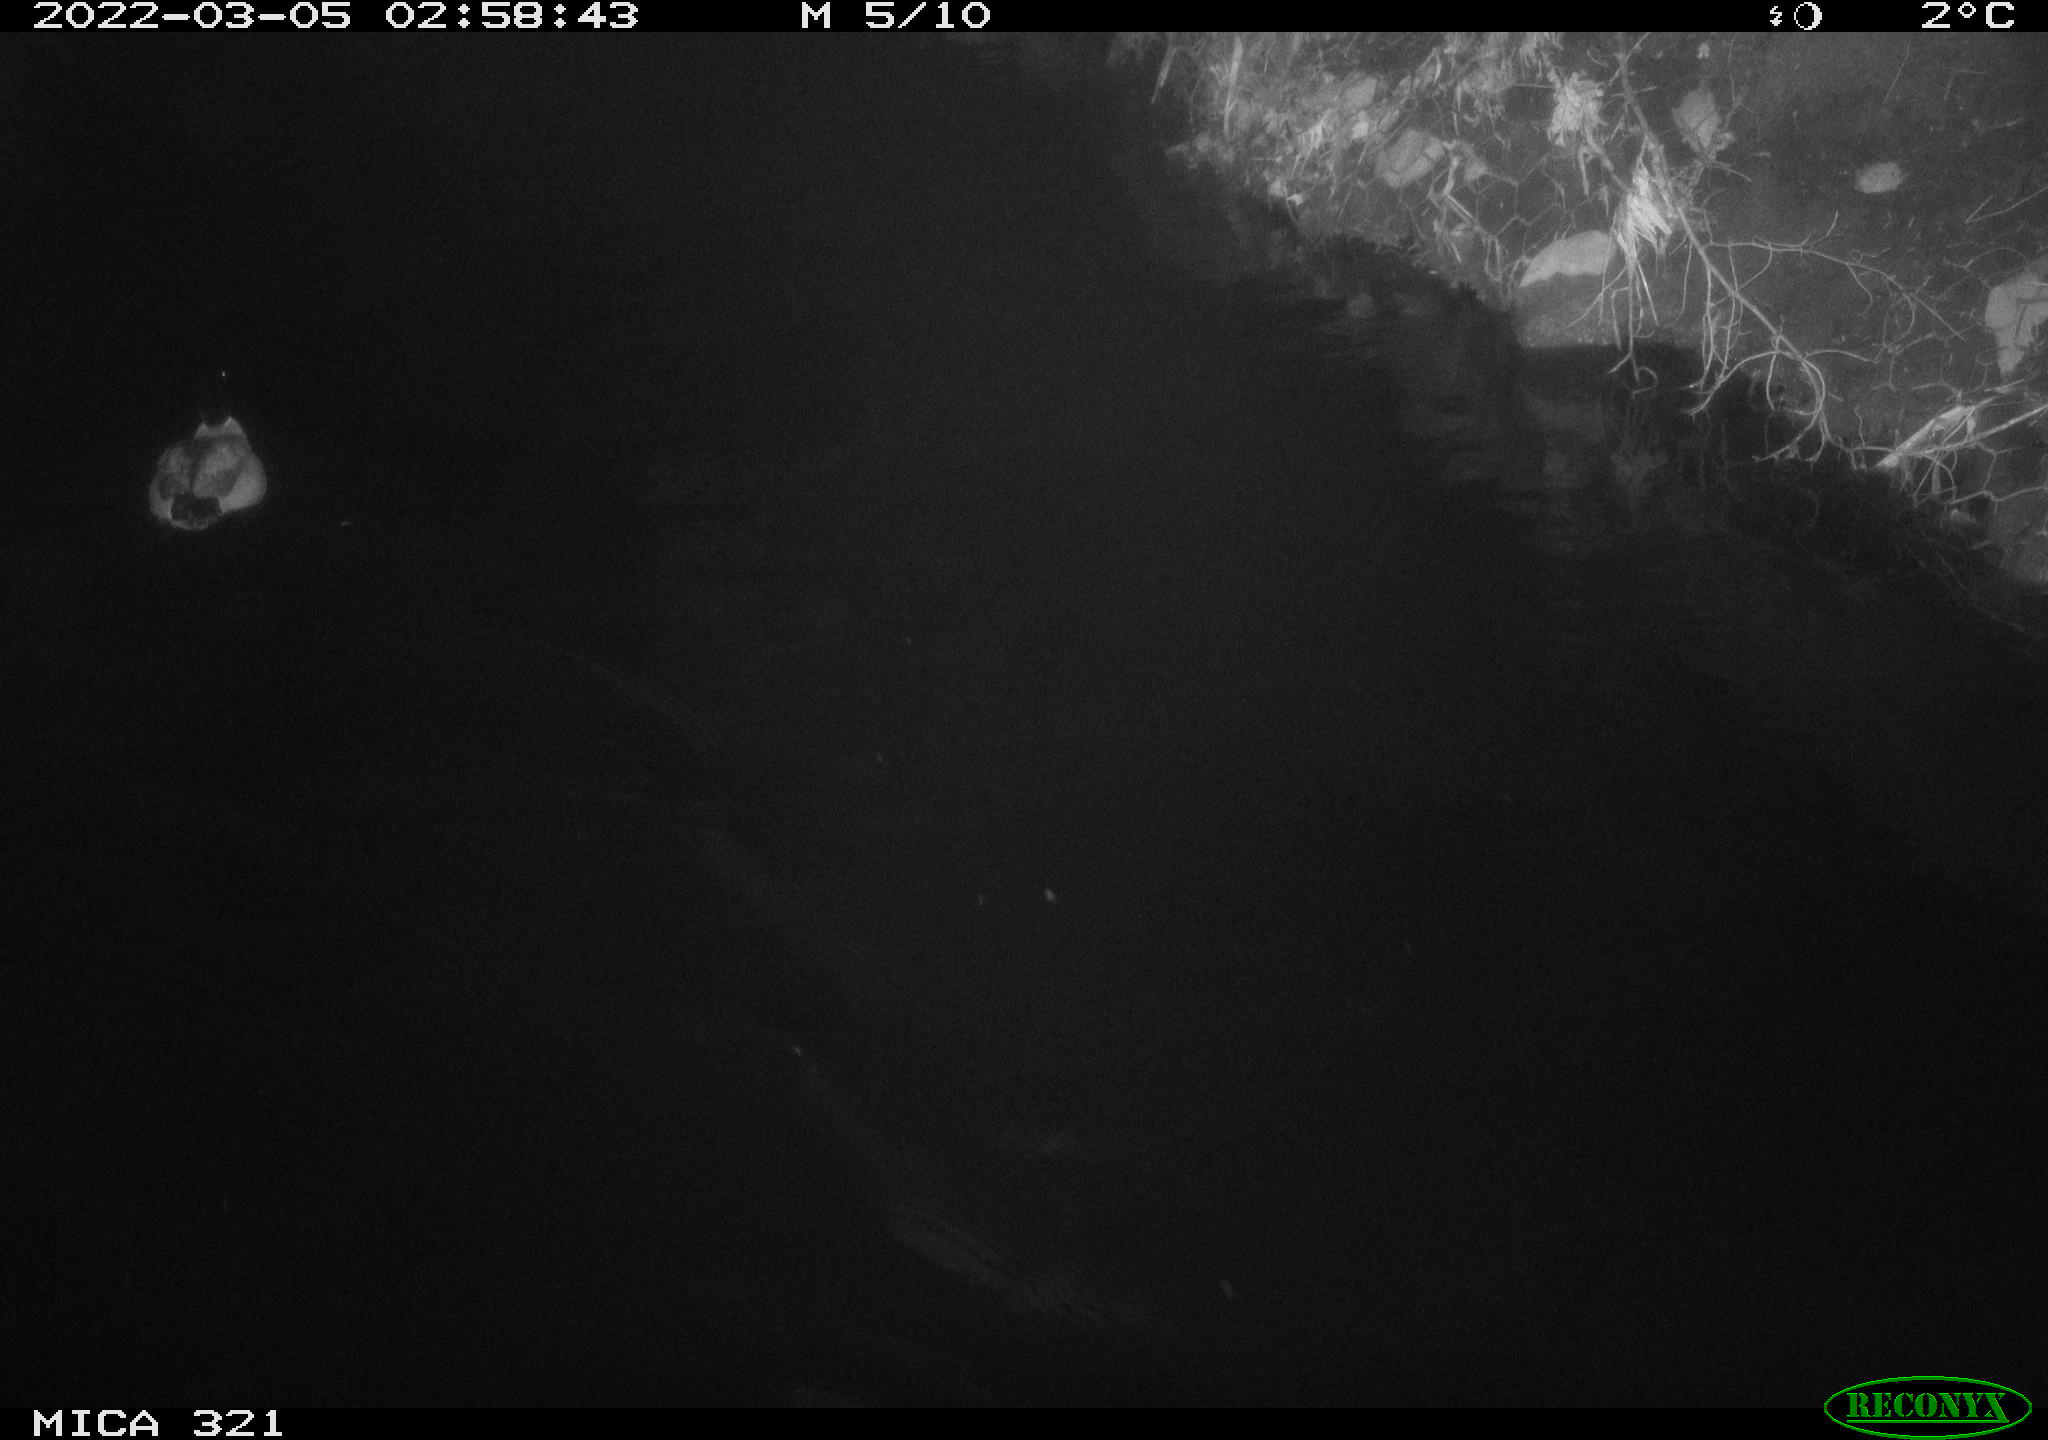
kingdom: Animalia
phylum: Chordata
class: Aves
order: Anseriformes
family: Anatidae
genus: Anas
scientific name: Anas platyrhynchos
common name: Mallard
